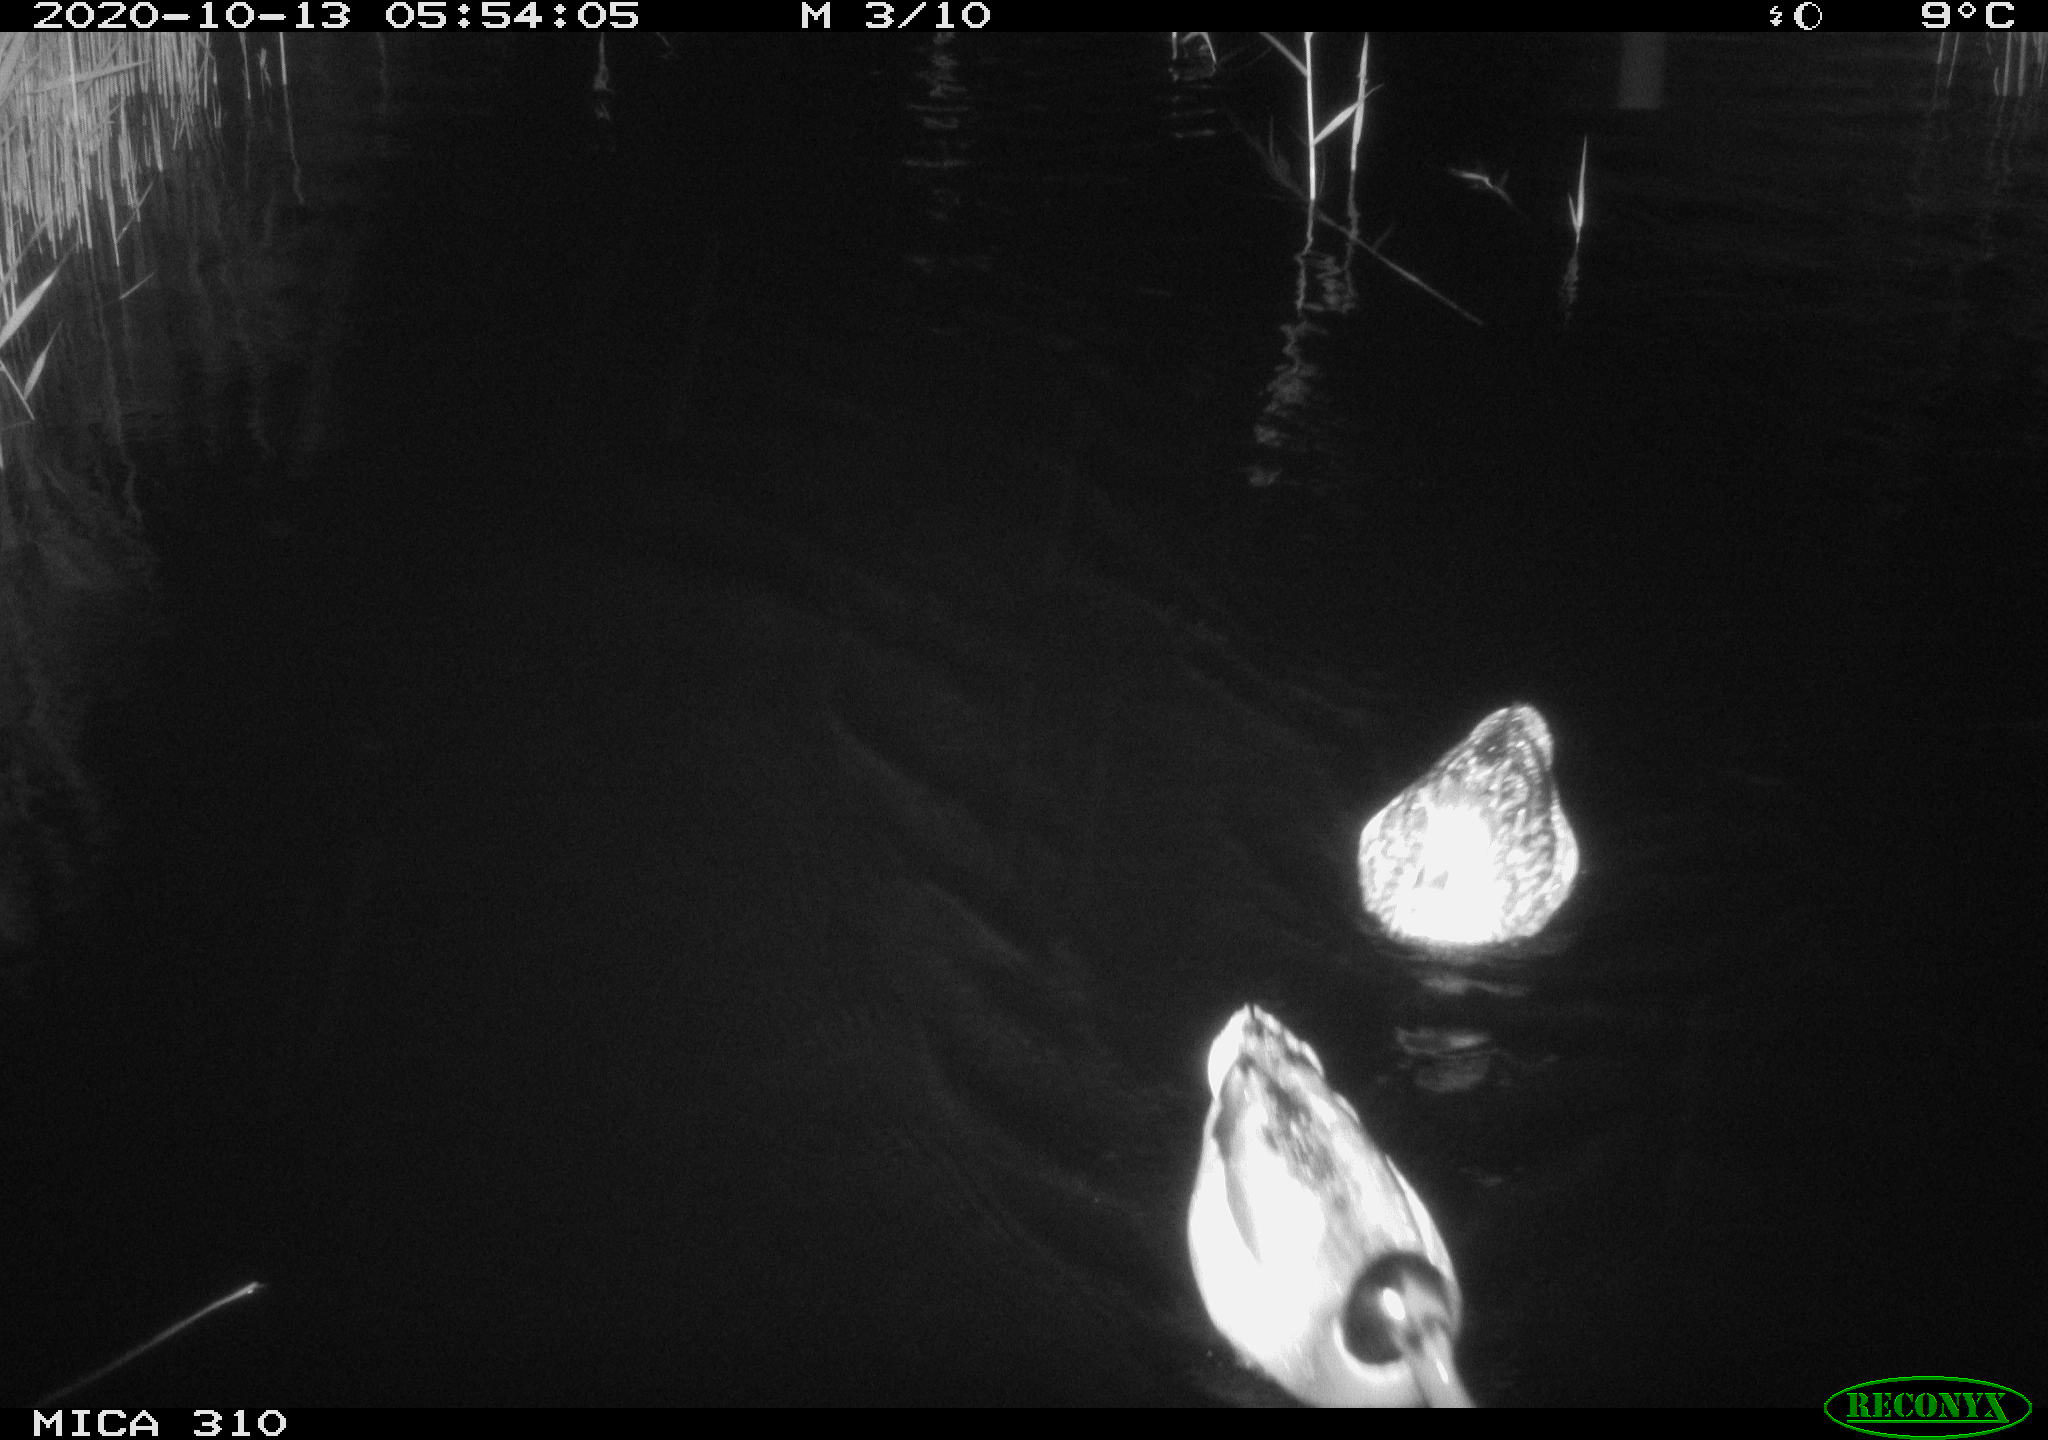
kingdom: Animalia
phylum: Chordata
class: Aves
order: Anseriformes
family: Anatidae
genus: Anas
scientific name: Anas platyrhynchos
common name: Mallard
